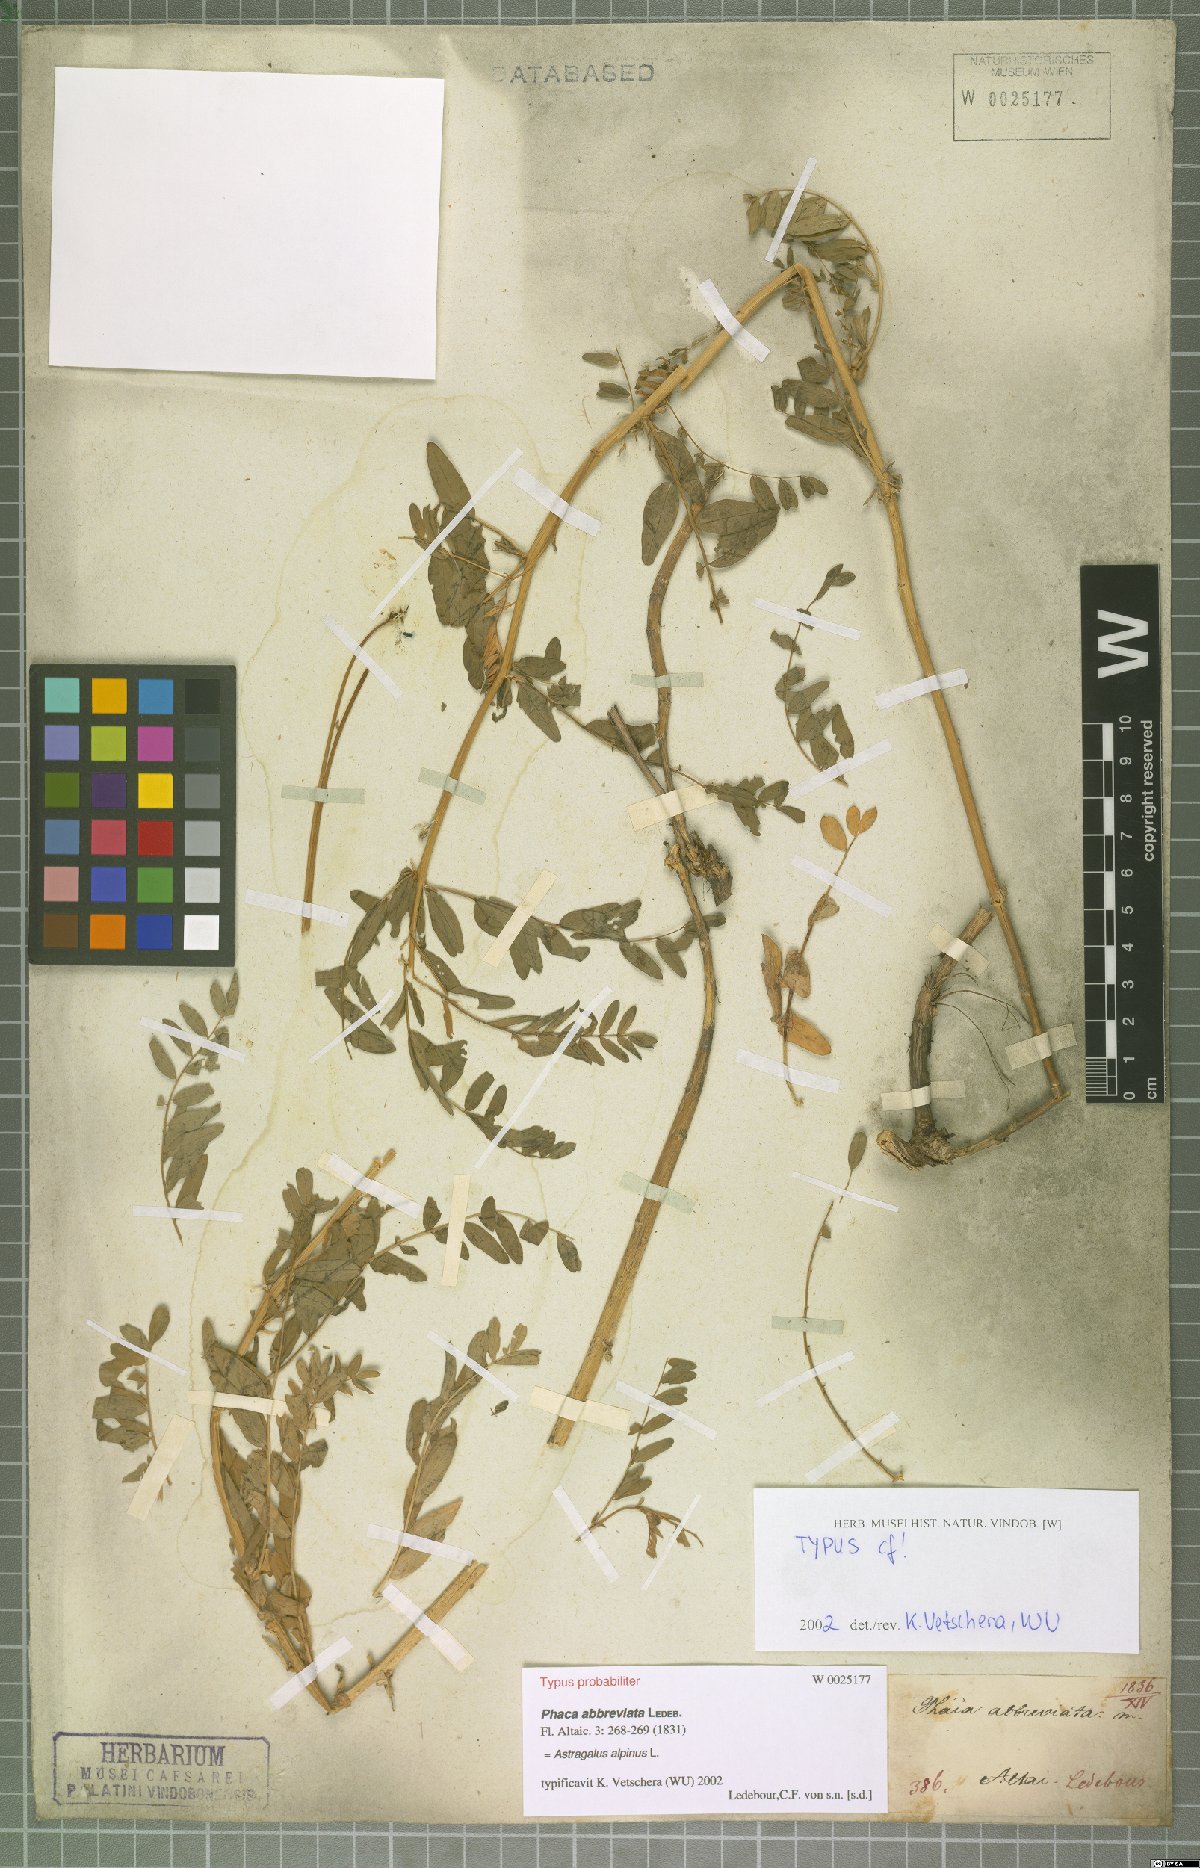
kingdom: Plantae
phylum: Tracheophyta
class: Magnoliopsida
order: Fabales
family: Fabaceae
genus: Astragalus
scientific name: Astragalus alpinus
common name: Alpine milk-vetch
